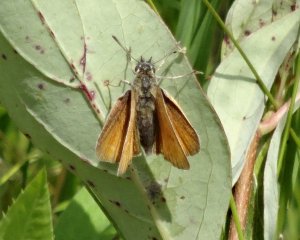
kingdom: Animalia
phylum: Arthropoda
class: Insecta
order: Lepidoptera
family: Hesperiidae
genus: Thymelicus
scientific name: Thymelicus lineola
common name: European Skipper
